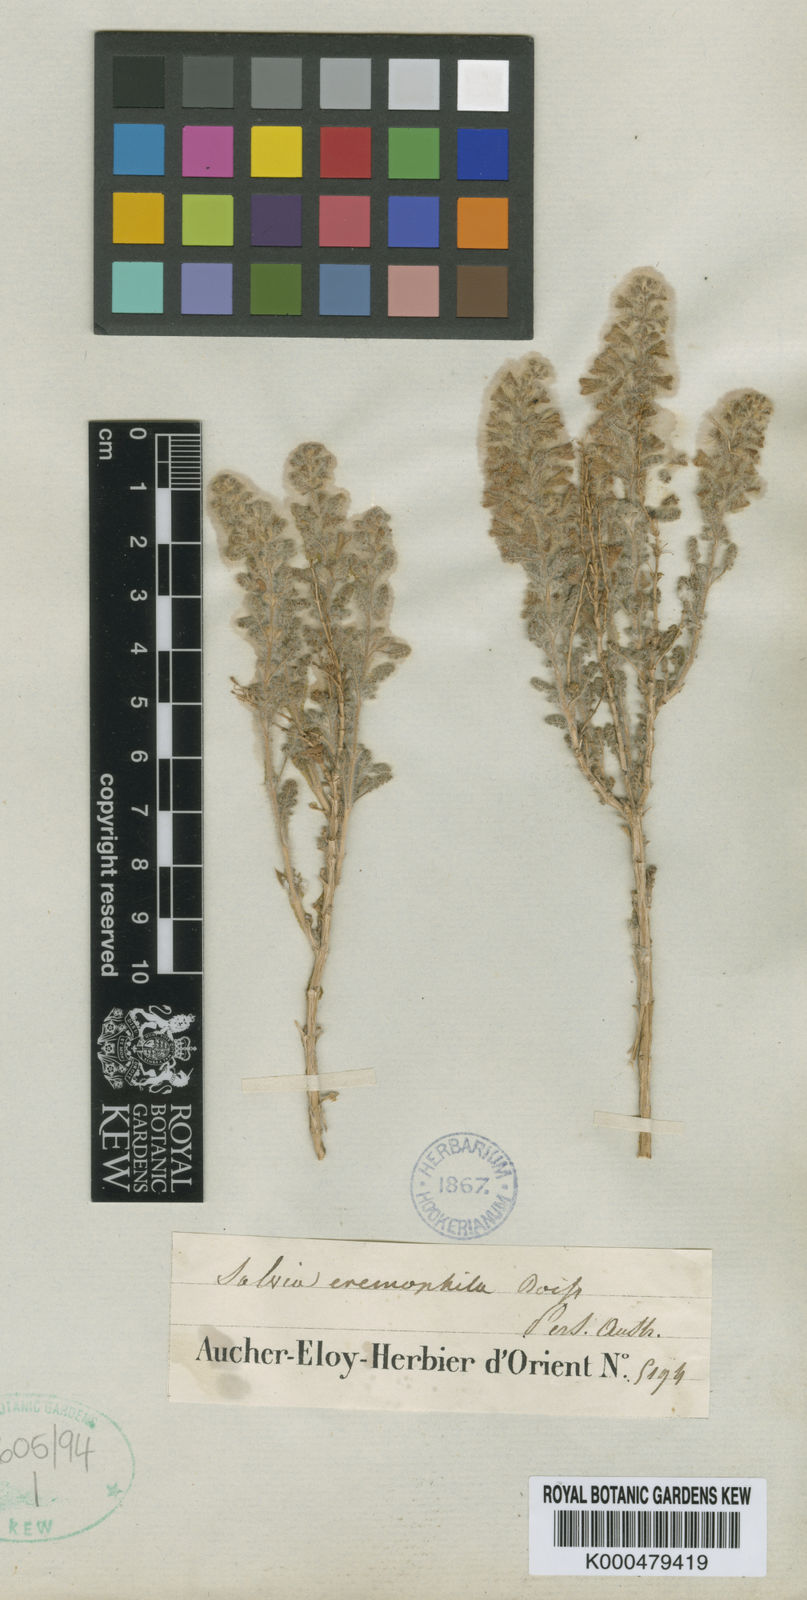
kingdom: Plantae
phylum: Tracheophyta
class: Magnoliopsida
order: Lamiales
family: Lamiaceae
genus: Salvia
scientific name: Salvia eremophila
